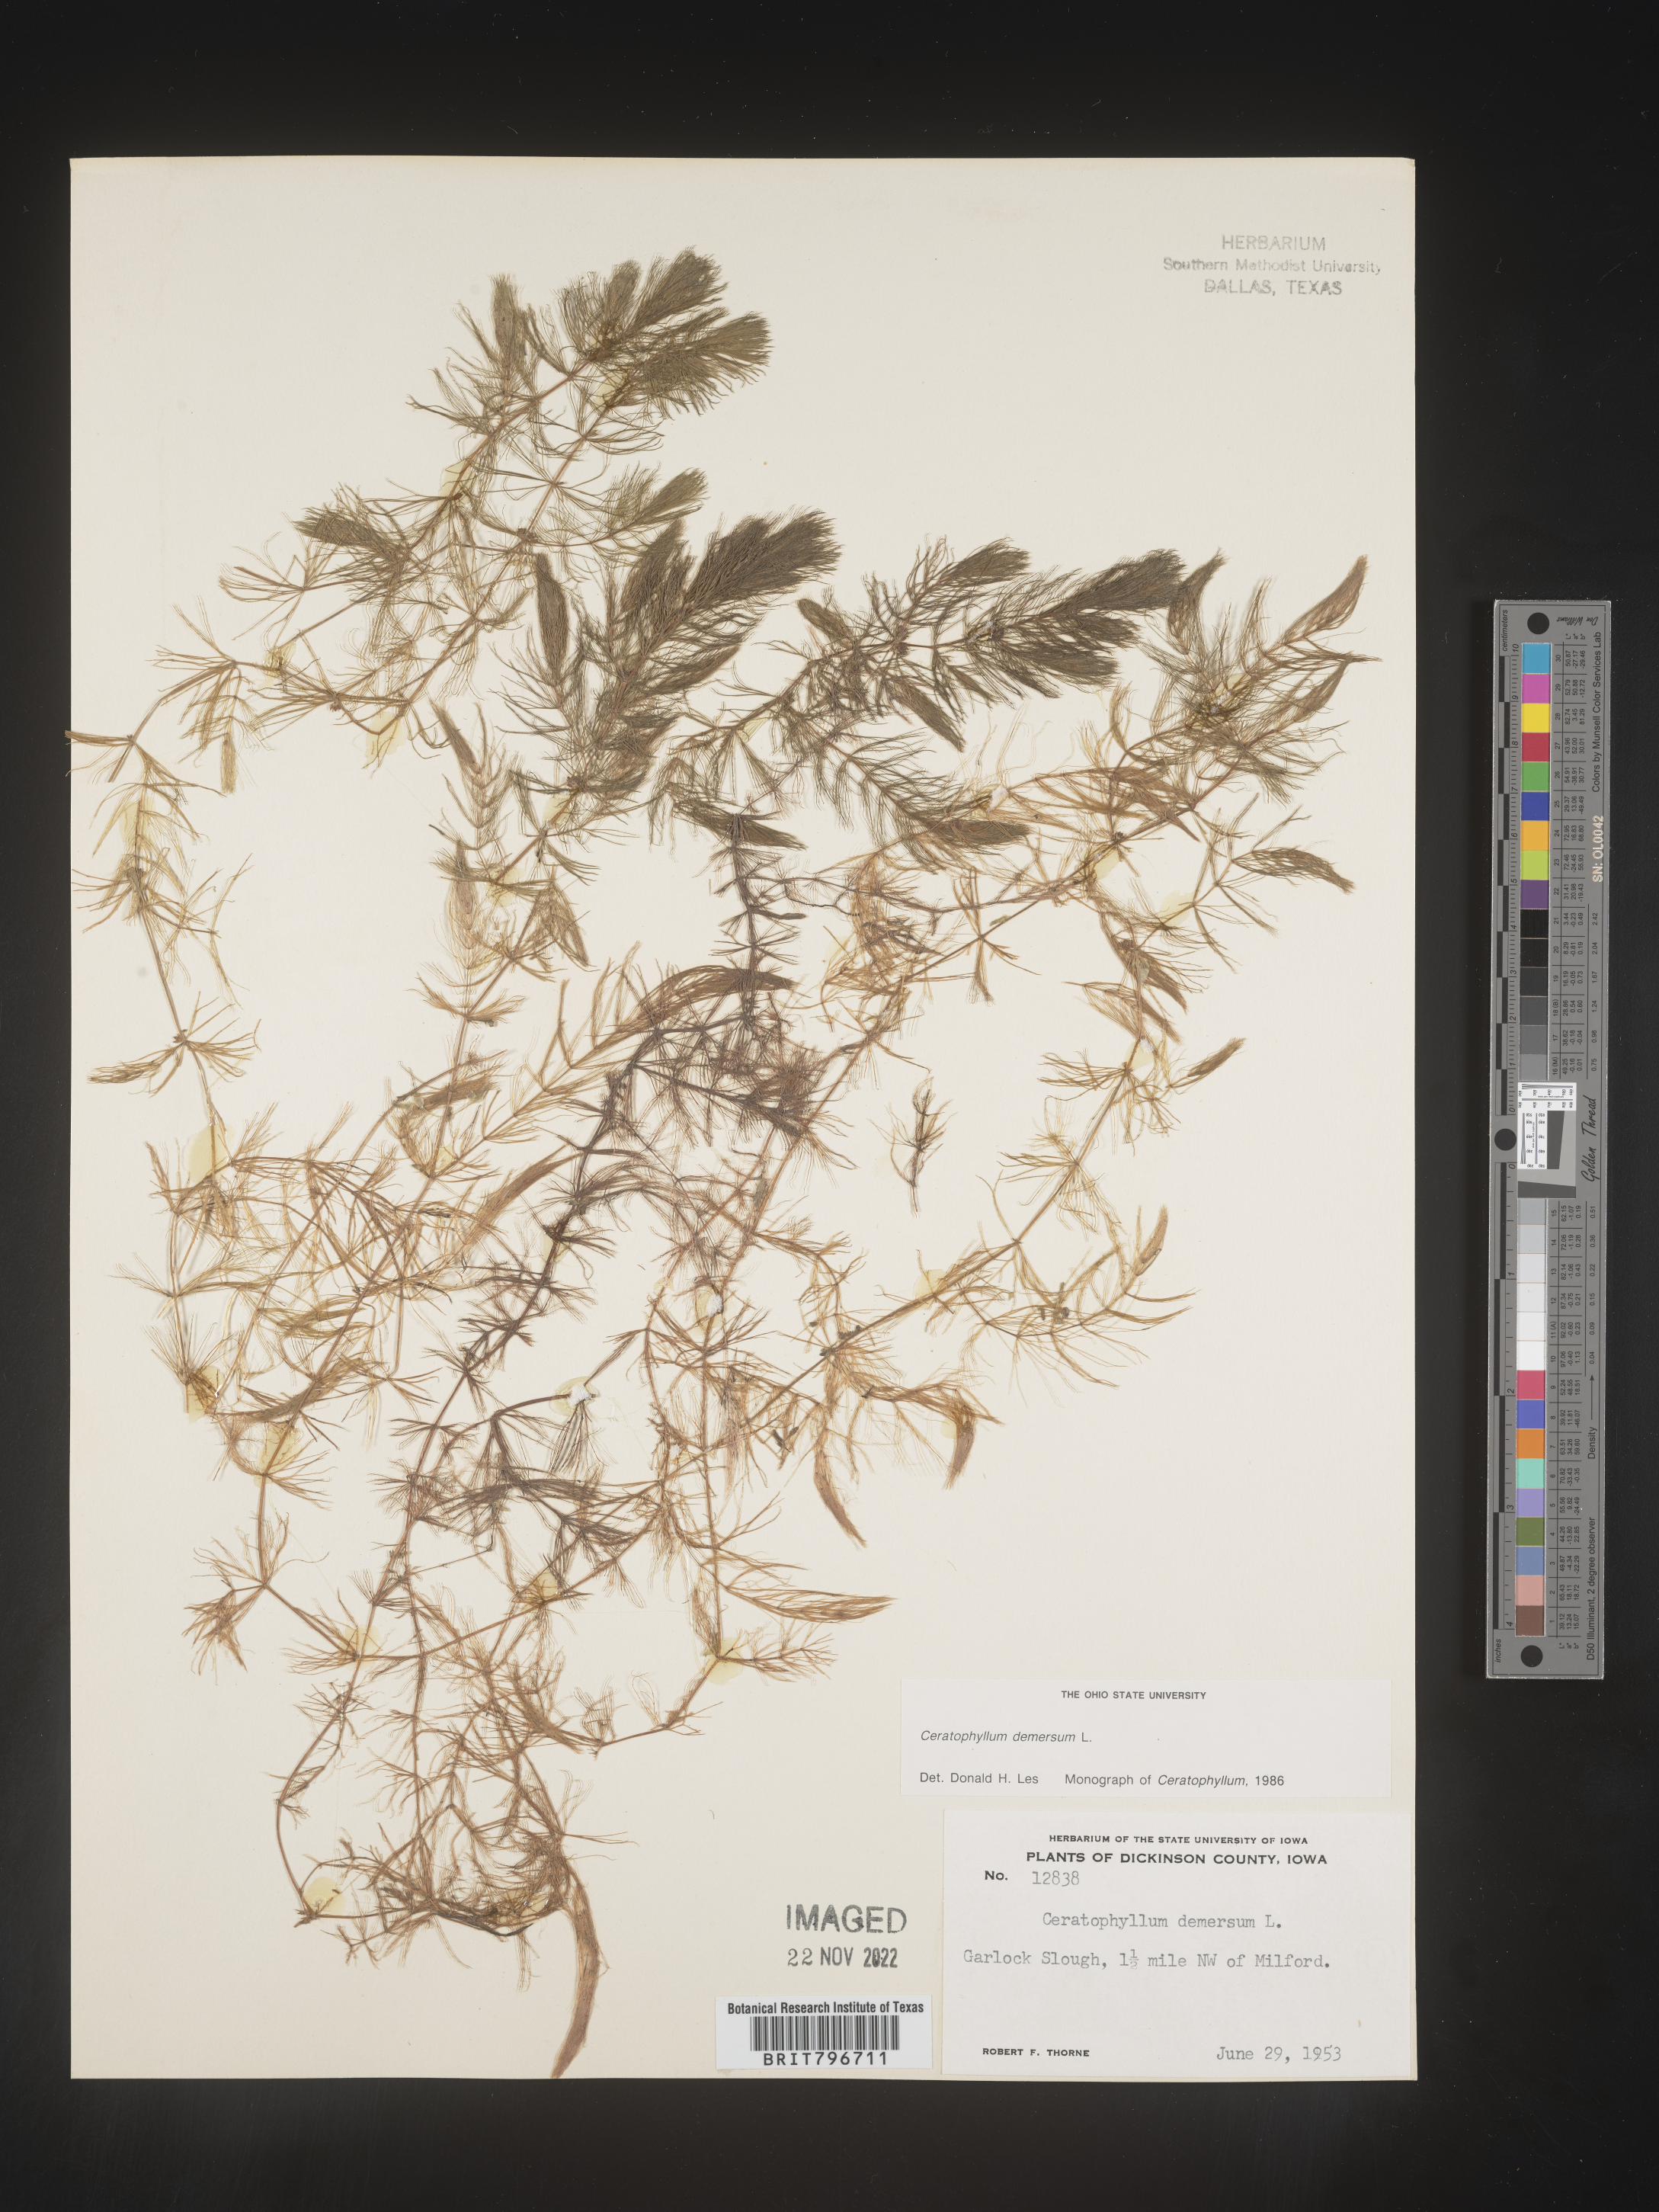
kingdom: Plantae
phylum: Tracheophyta
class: Magnoliopsida
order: Ceratophyllales
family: Ceratophyllaceae
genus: Ceratophyllum
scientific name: Ceratophyllum demersum
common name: Rigid hornwort
